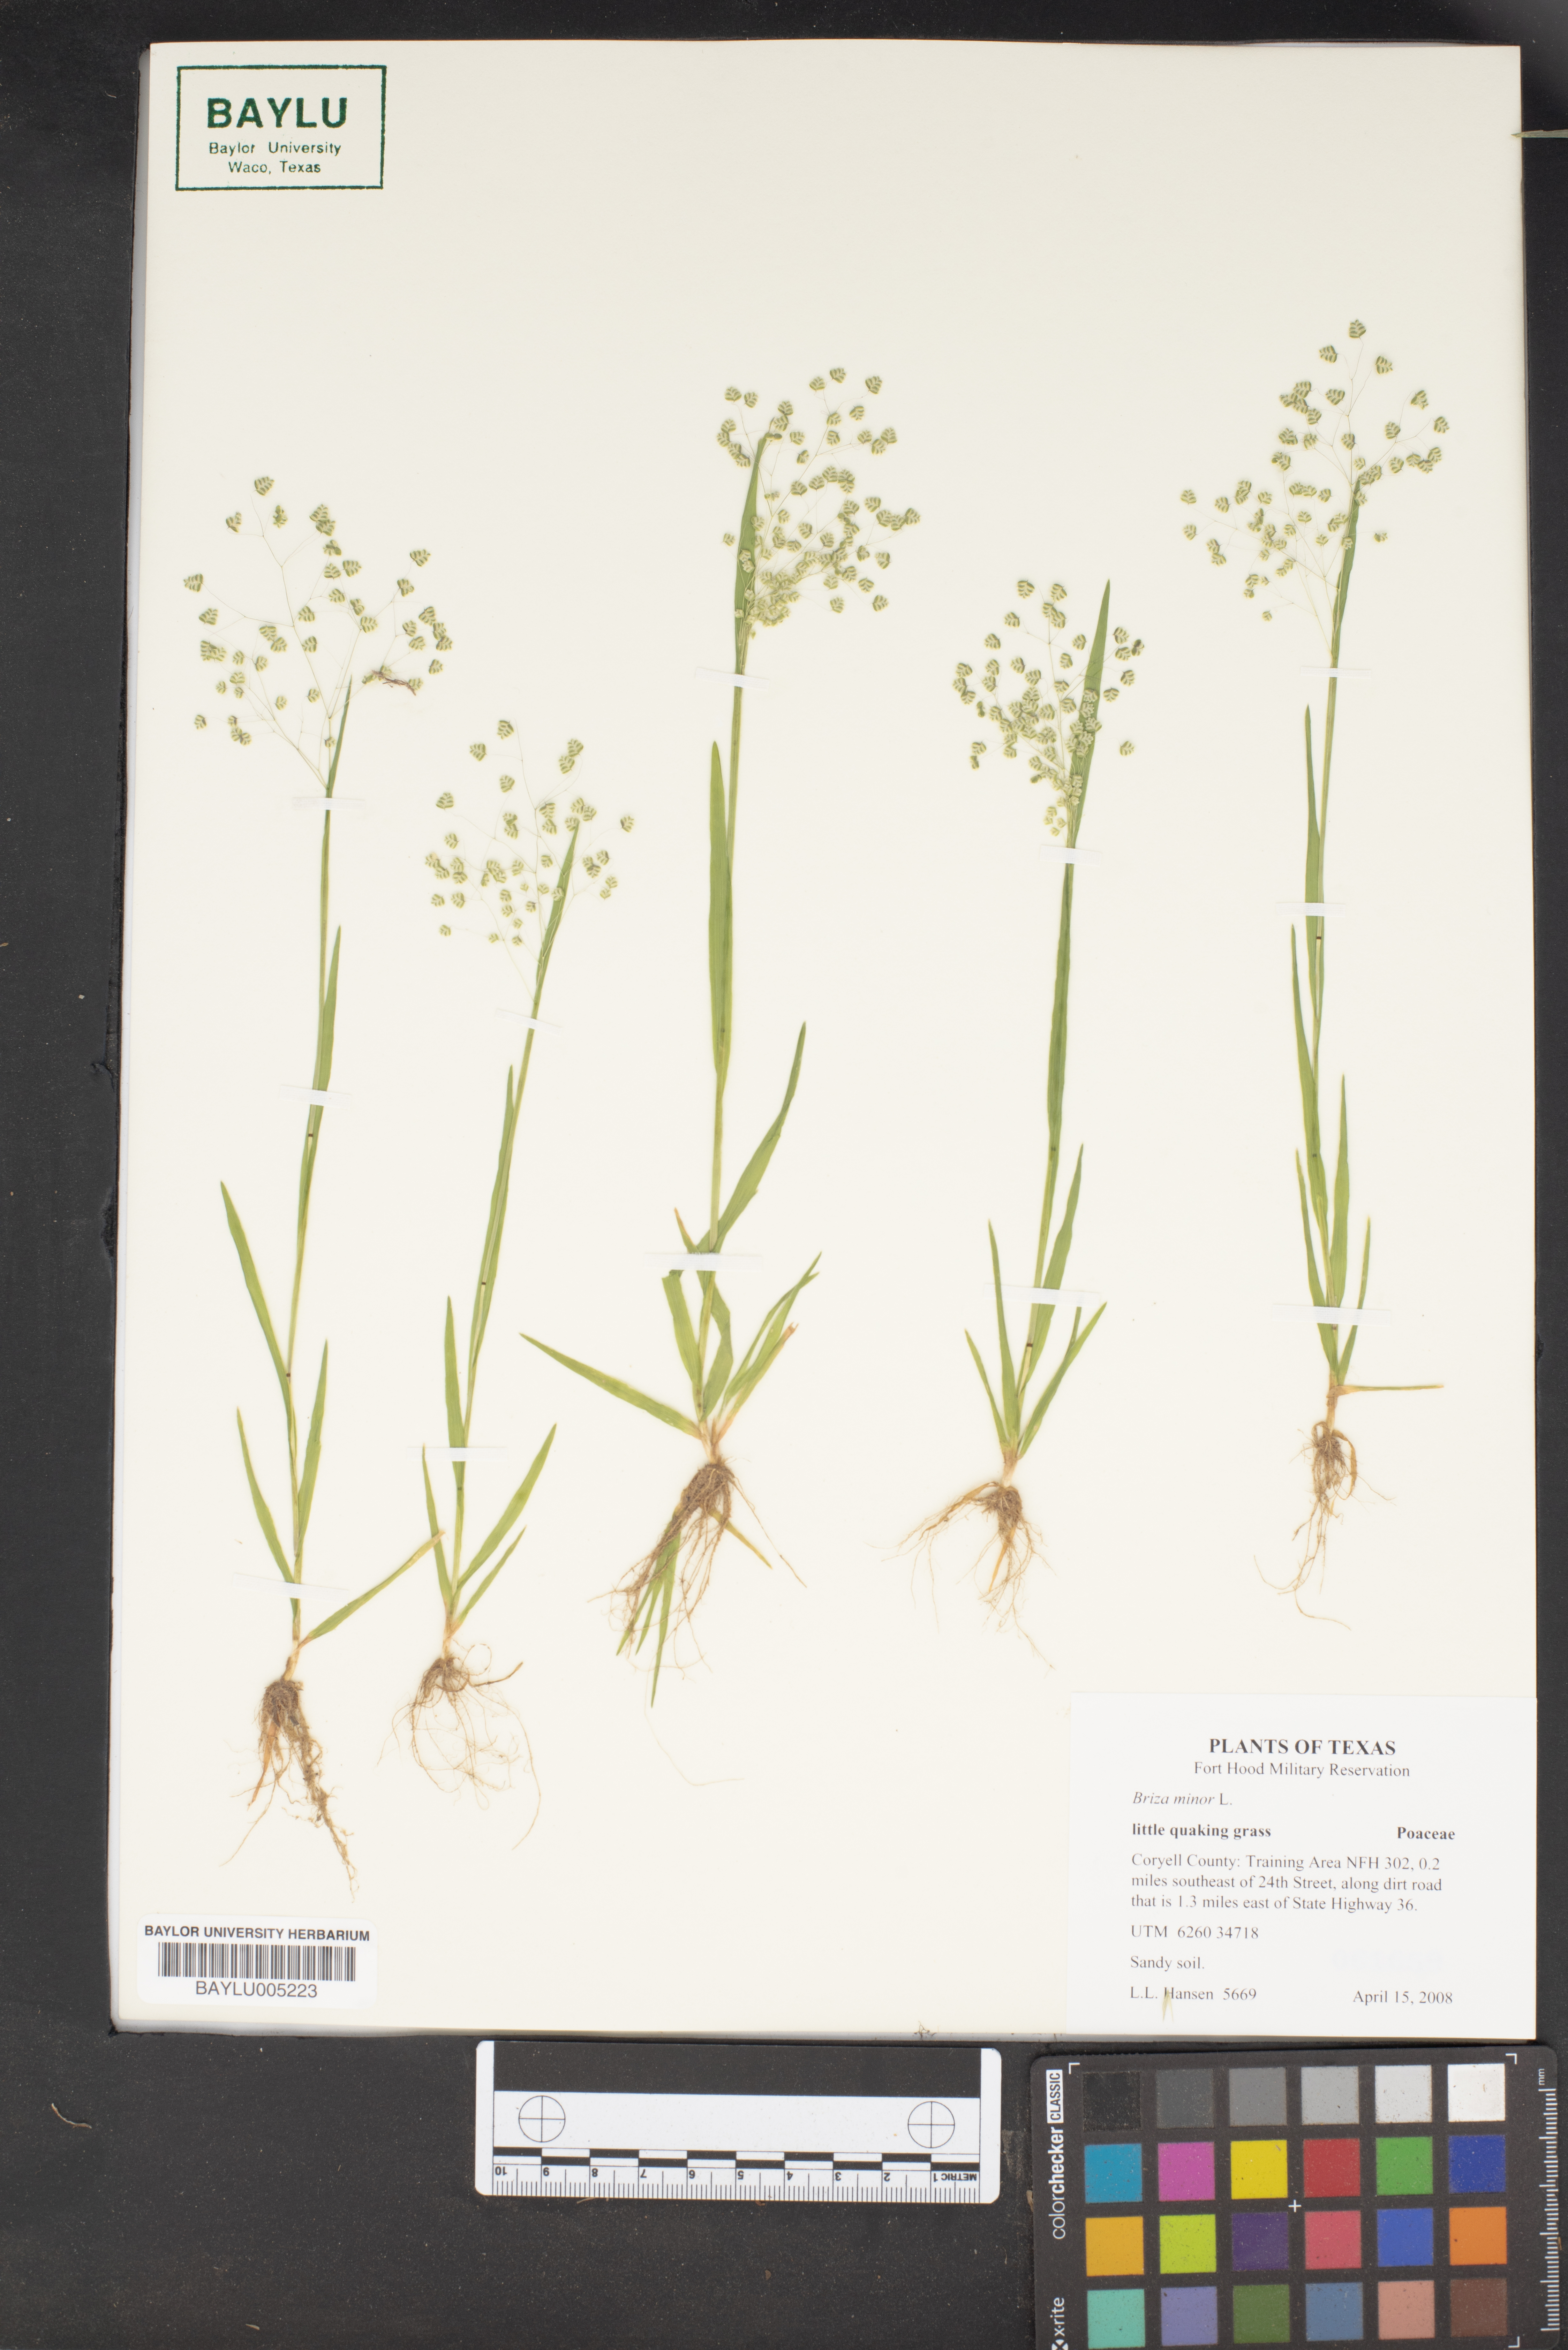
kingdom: Plantae
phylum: Tracheophyta
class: Liliopsida
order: Poales
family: Poaceae
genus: Briza
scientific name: Briza minor
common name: Lesser quaking-grass
